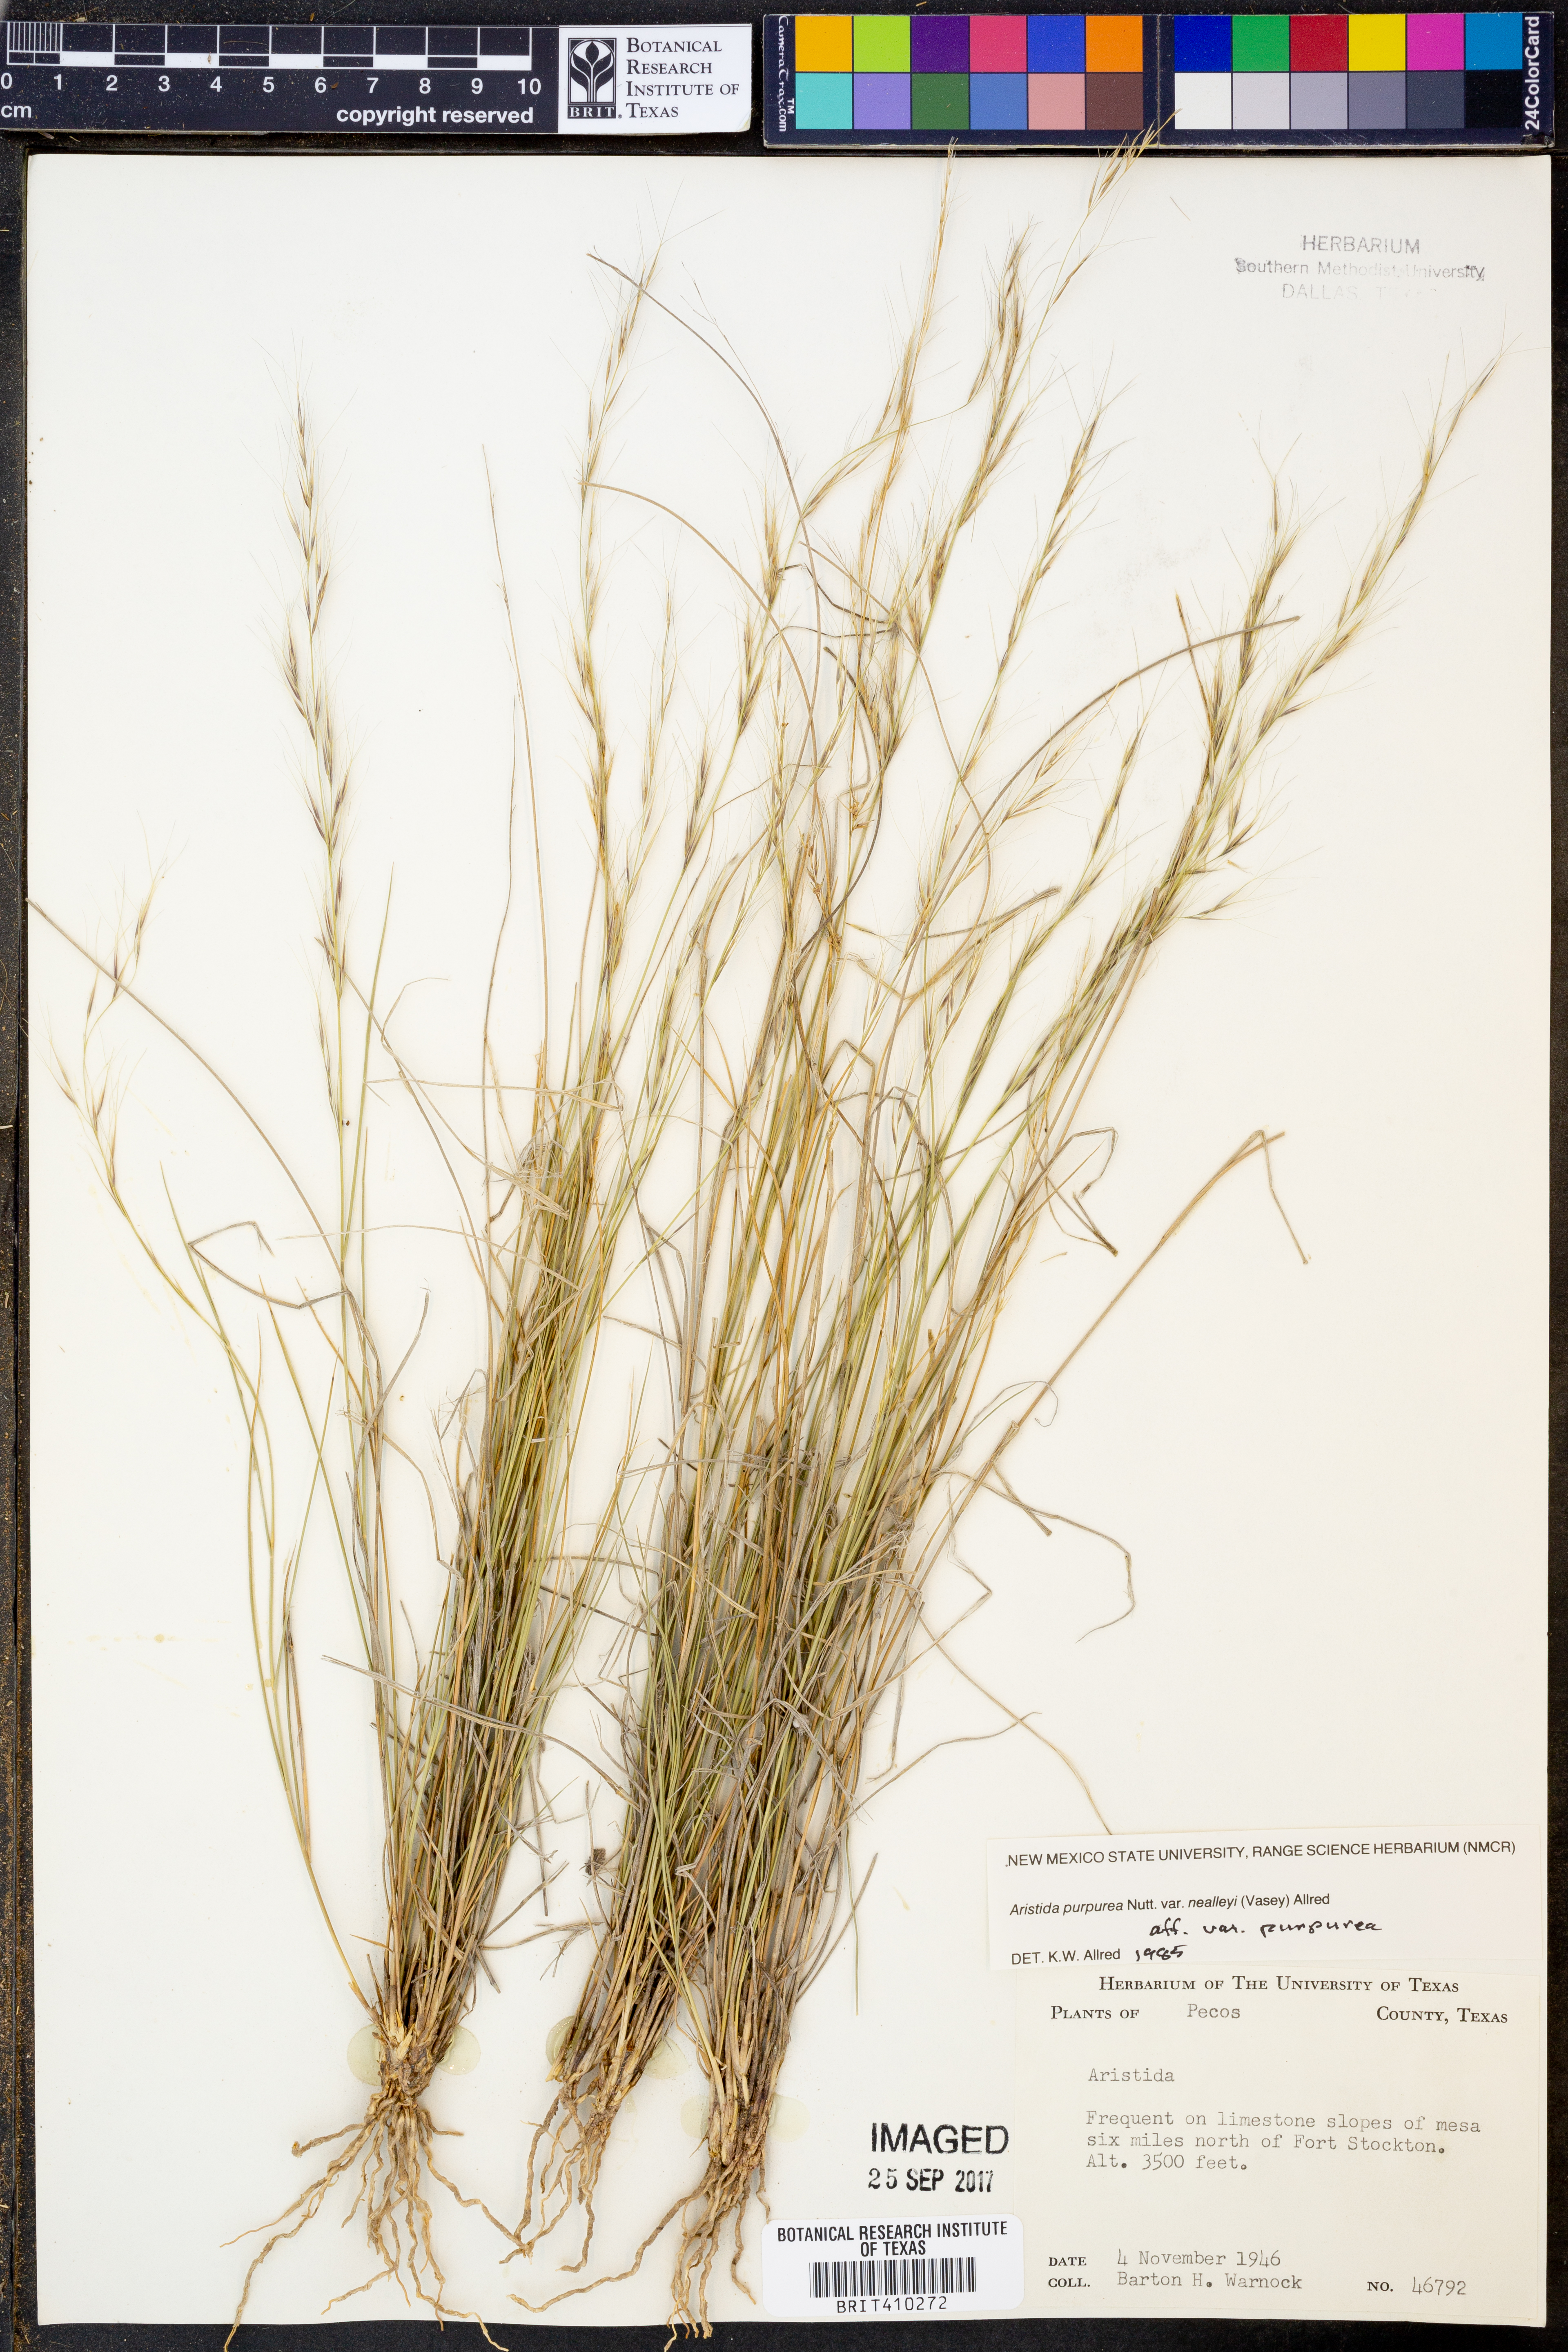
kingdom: Plantae
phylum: Tracheophyta
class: Liliopsida
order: Poales
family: Poaceae
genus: Aristida
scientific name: Aristida glauca
